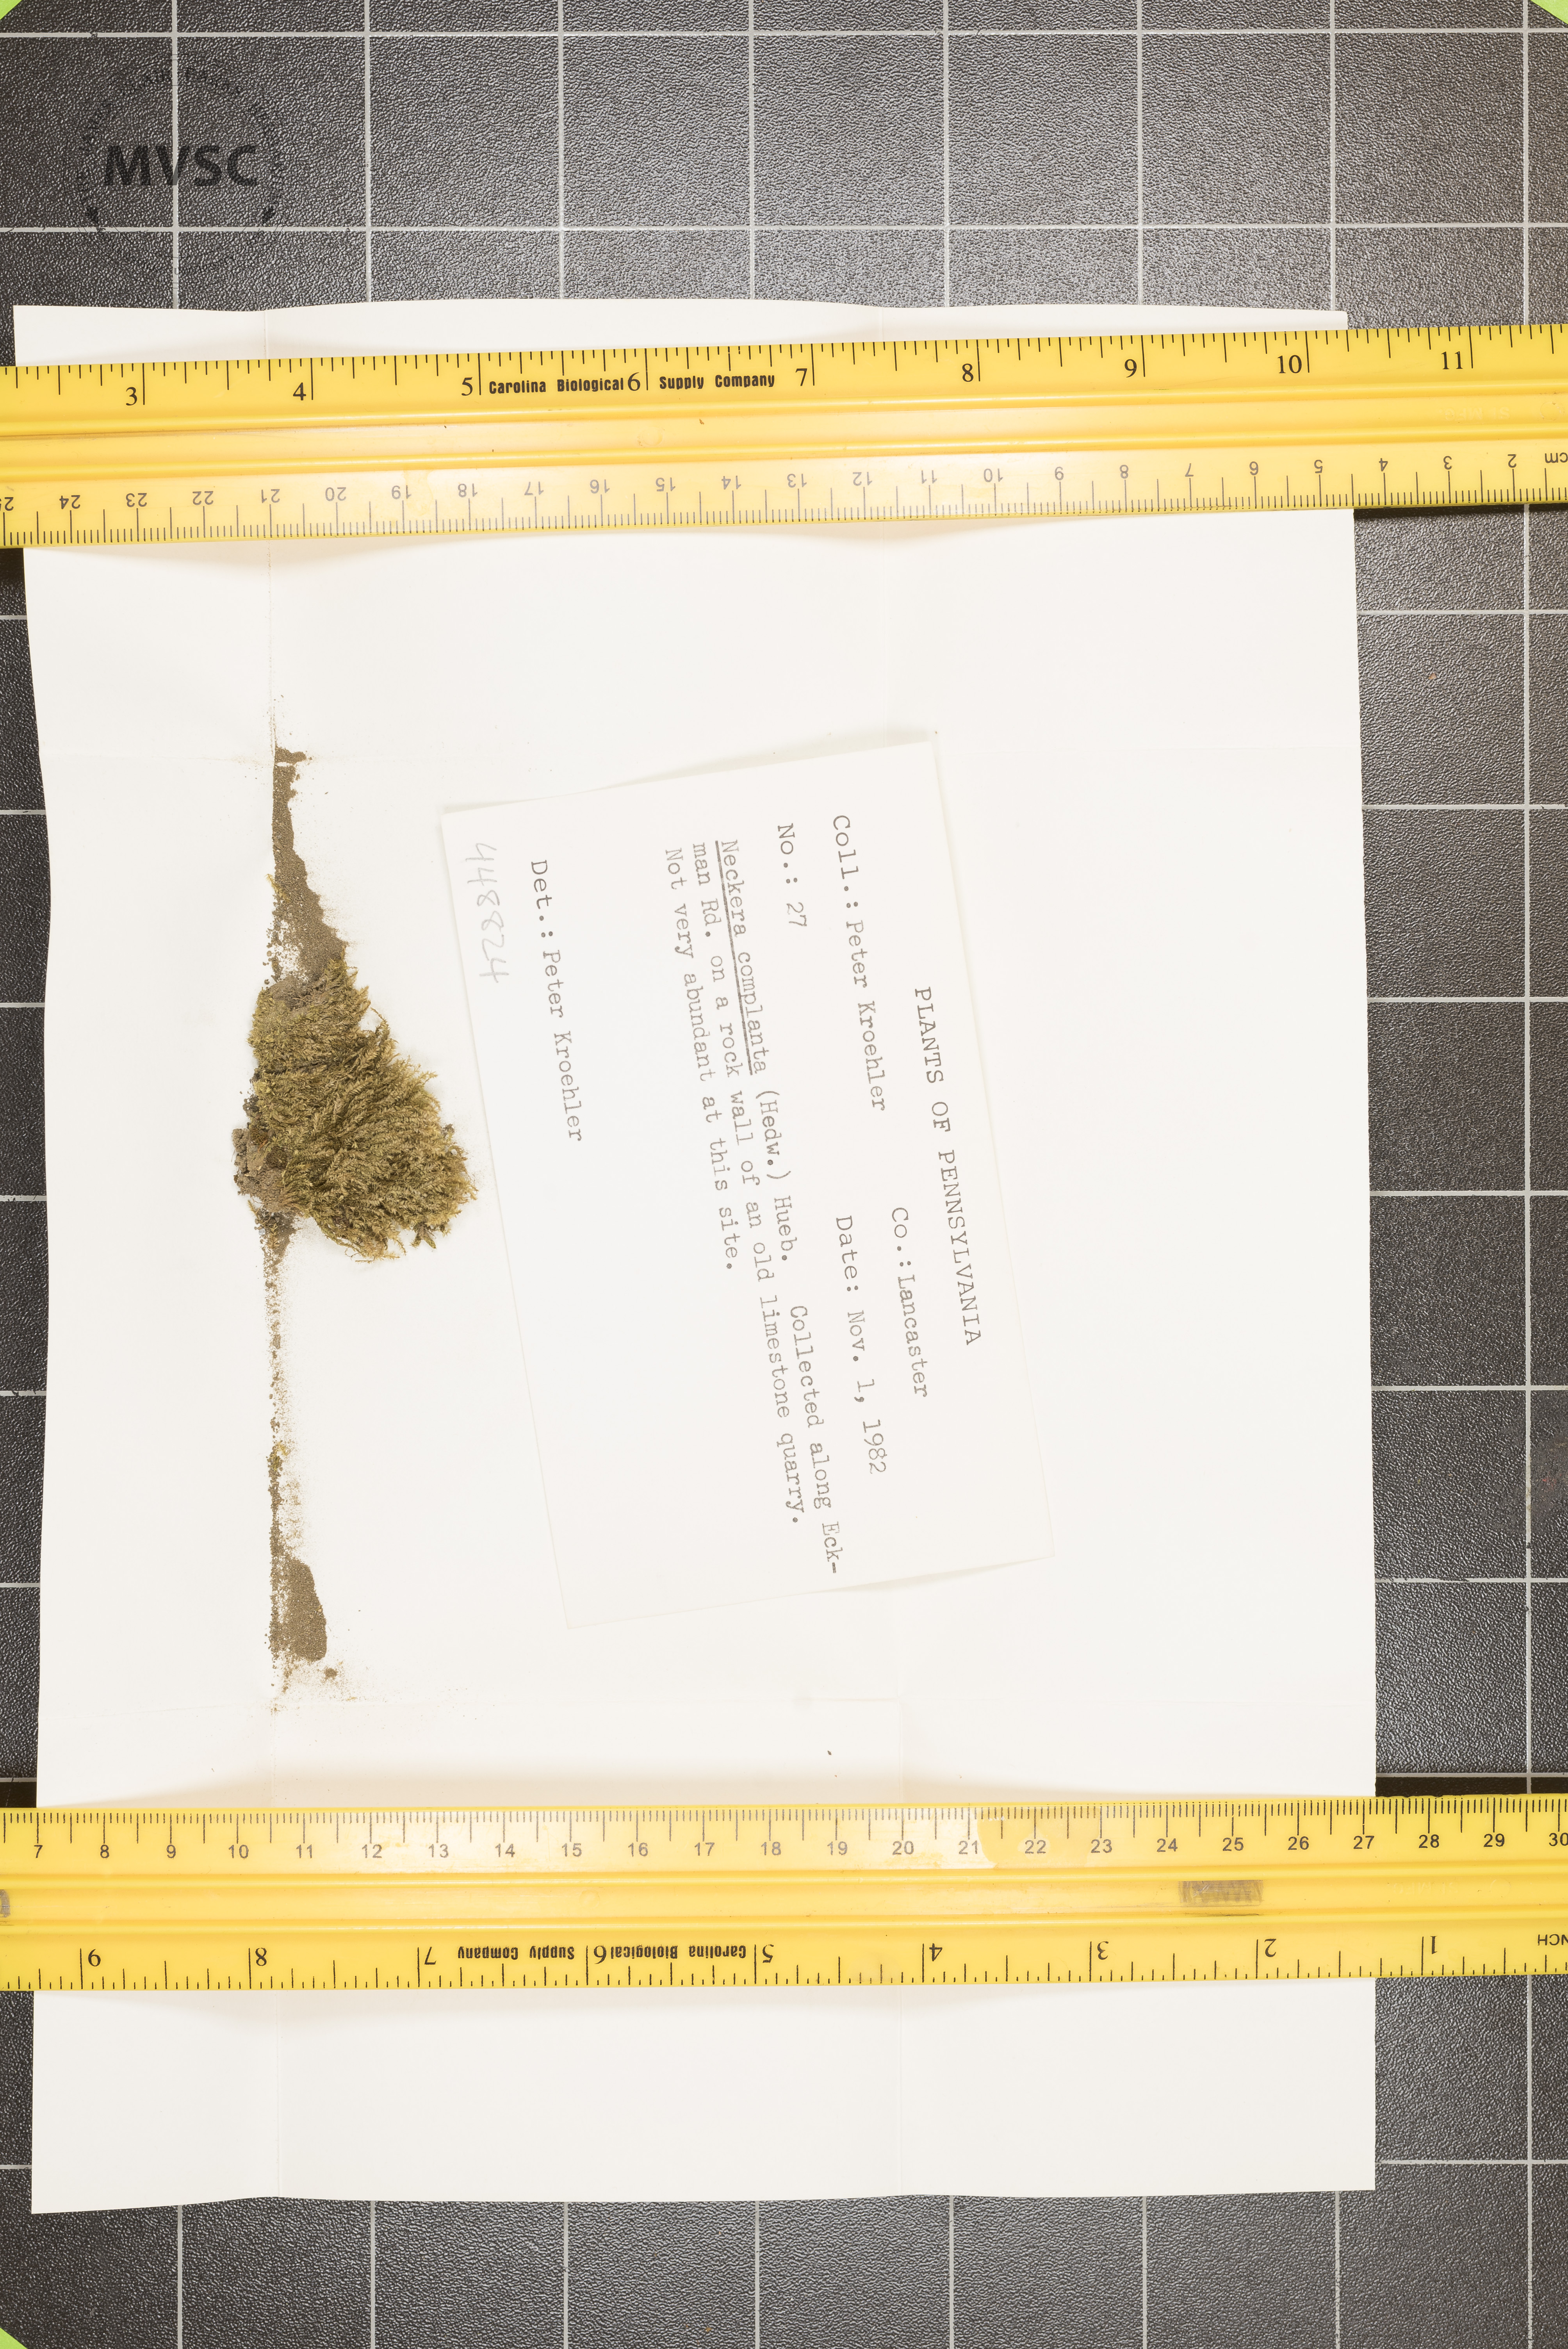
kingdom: Plantae
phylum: Bryophyta
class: Bryopsida
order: Hypnales
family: Neckeraceae
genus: Alleniella
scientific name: Alleniella complanata
